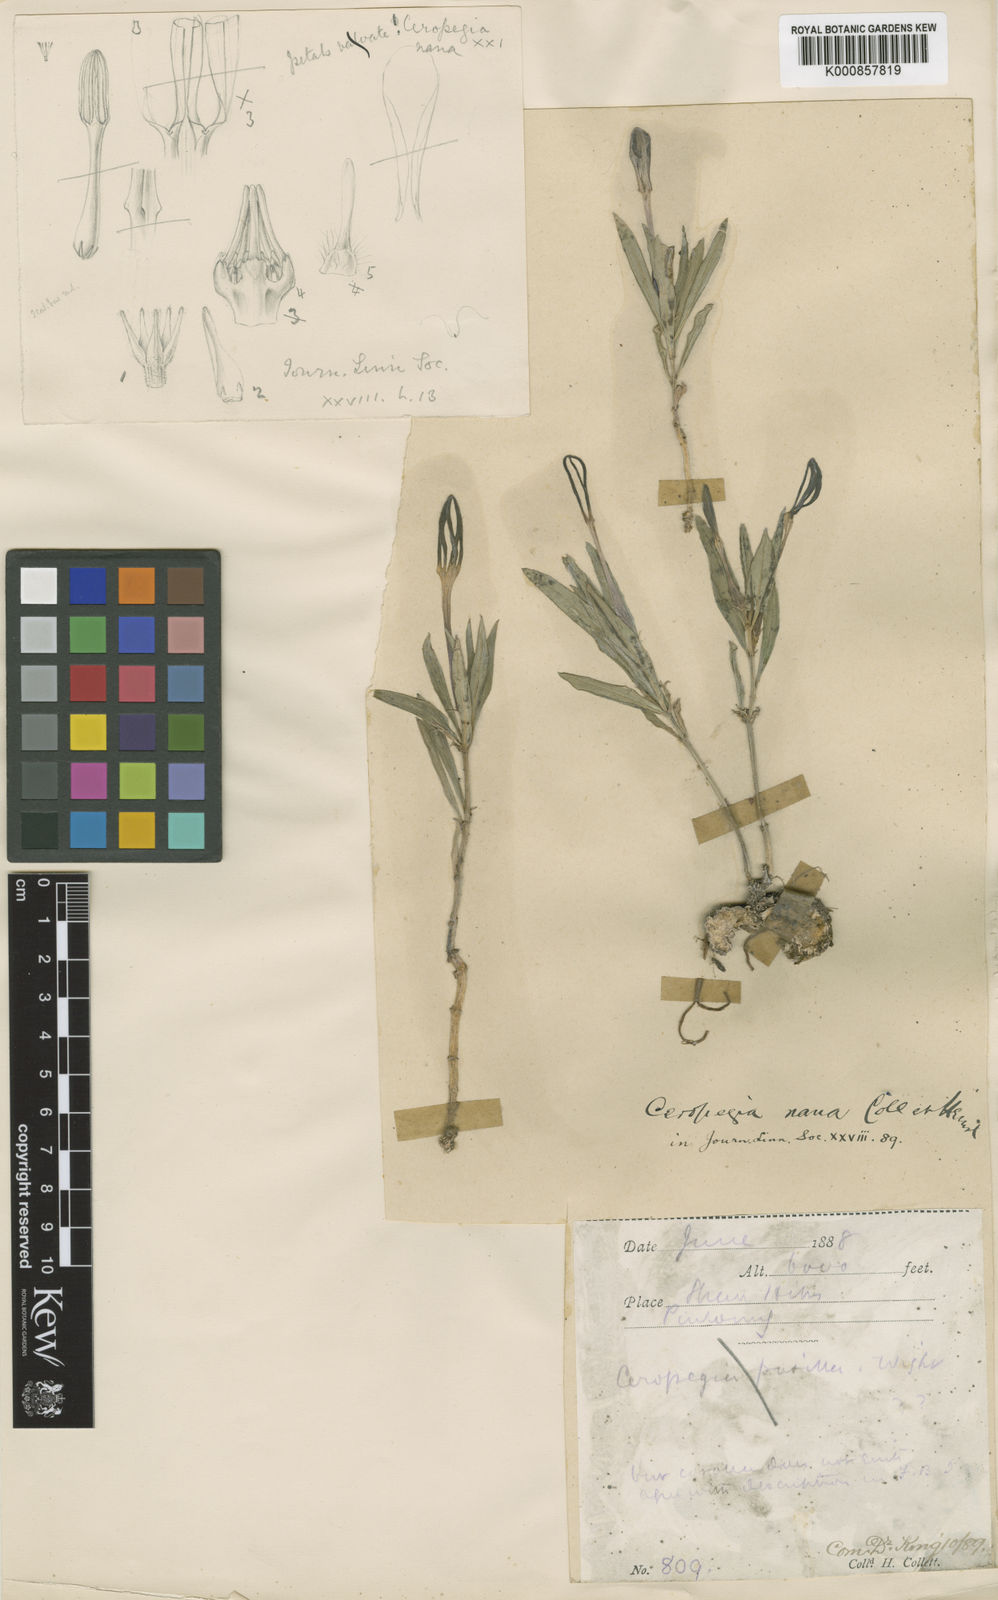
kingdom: Plantae
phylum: Tracheophyta
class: Magnoliopsida
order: Gentianales
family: Apocynaceae
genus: Ceropegia
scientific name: Ceropegia nana
